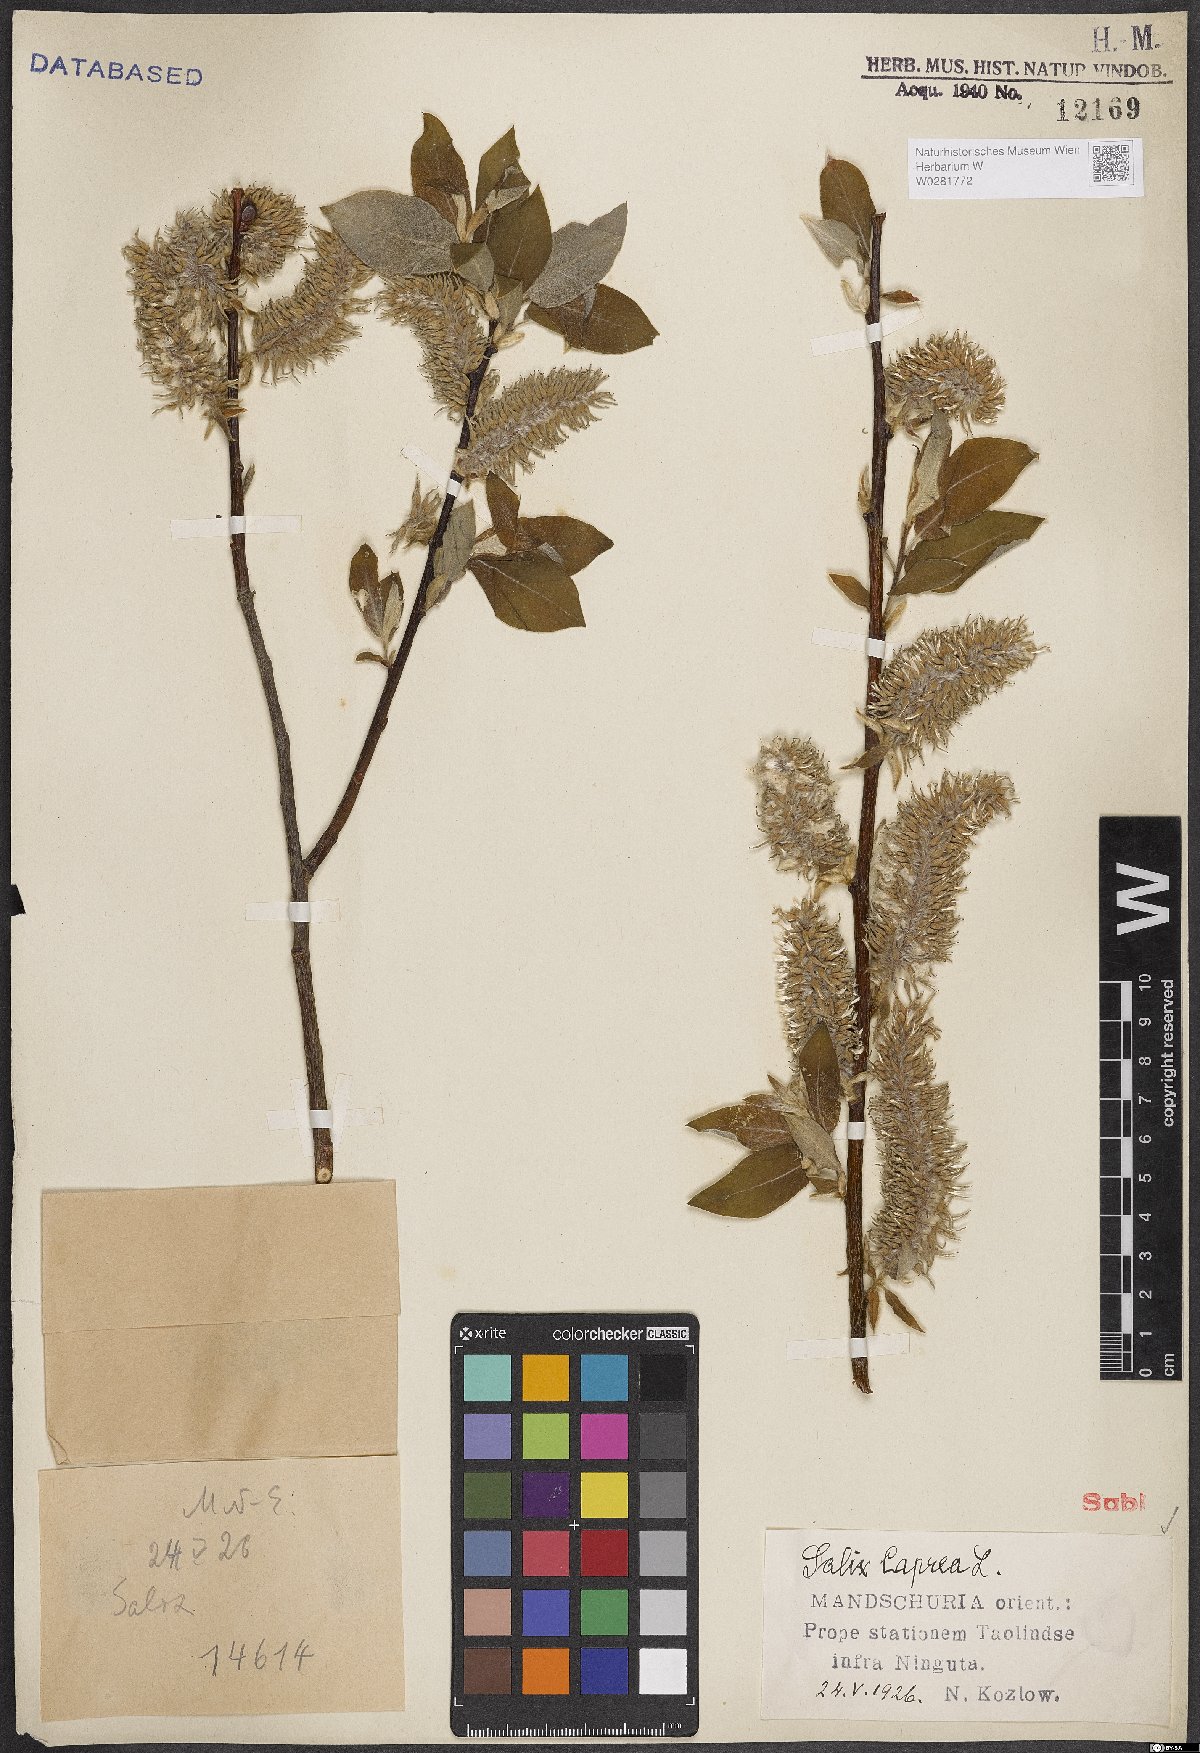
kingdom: Plantae
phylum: Tracheophyta
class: Magnoliopsida
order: Malpighiales
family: Salicaceae
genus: Salix
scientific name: Salix caprea
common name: Goat willow
